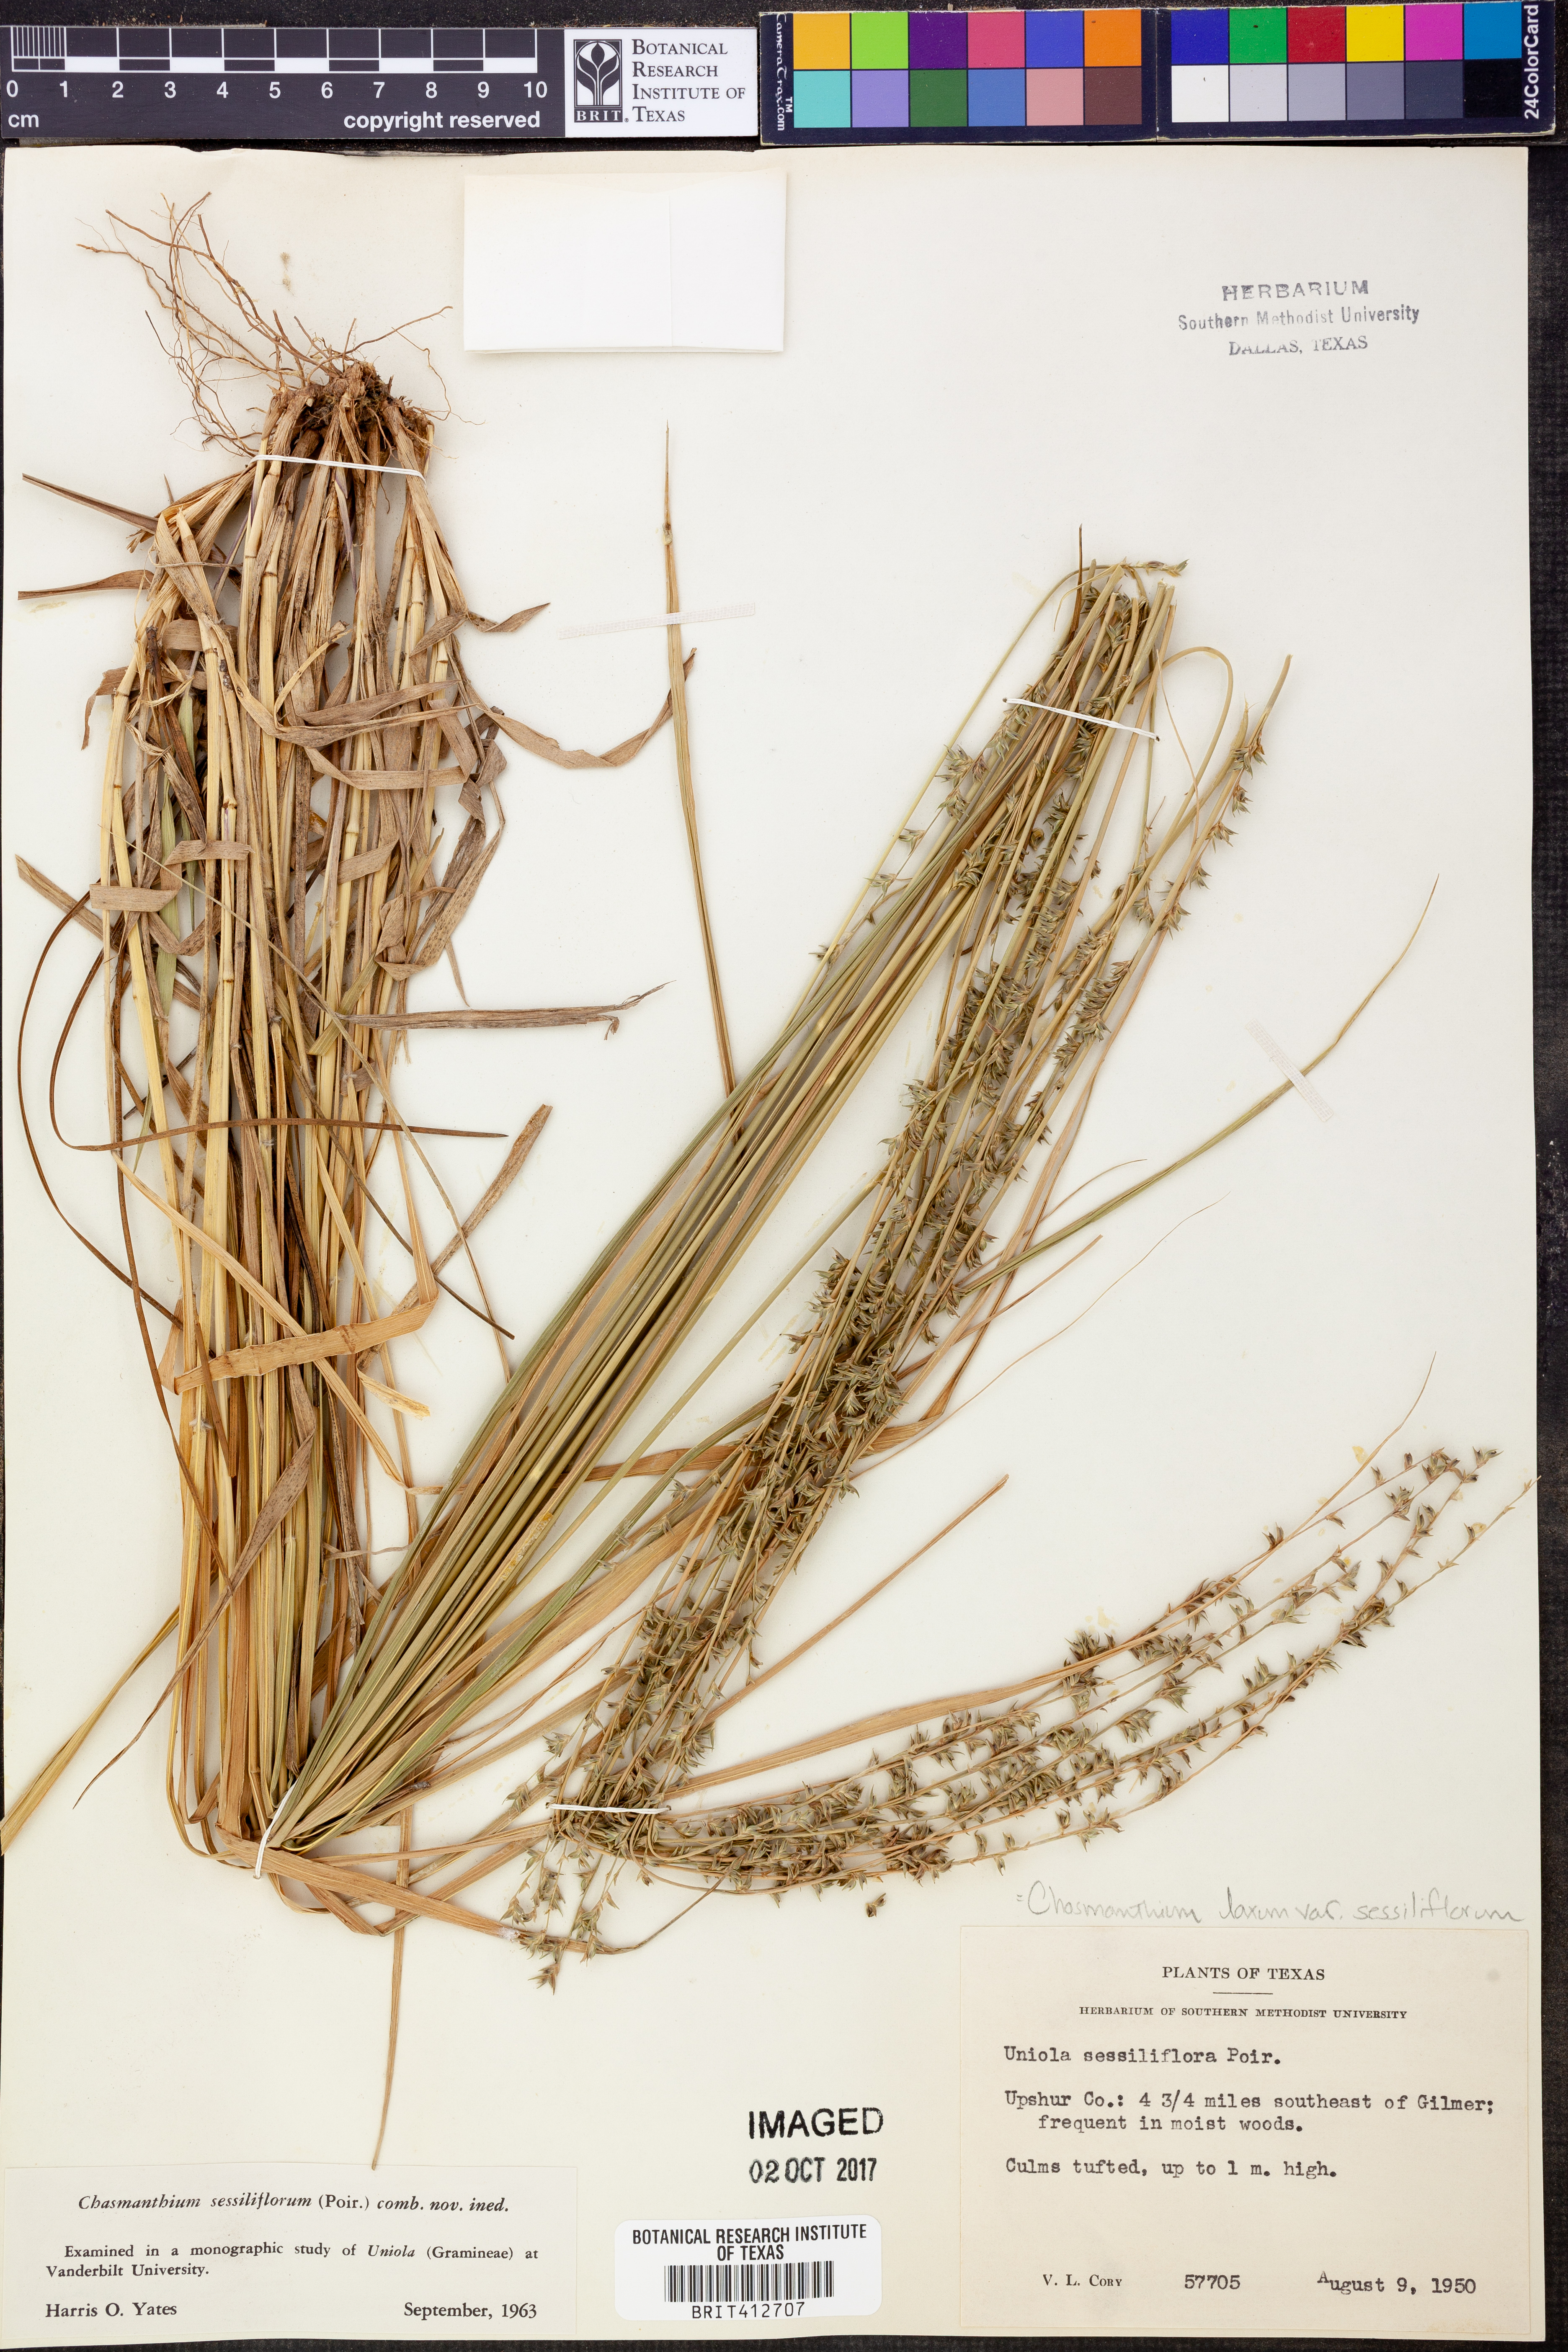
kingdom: Plantae
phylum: Tracheophyta
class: Liliopsida
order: Poales
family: Poaceae
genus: Chasmanthium
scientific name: Chasmanthium laxum
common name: Slender chasmanthium
